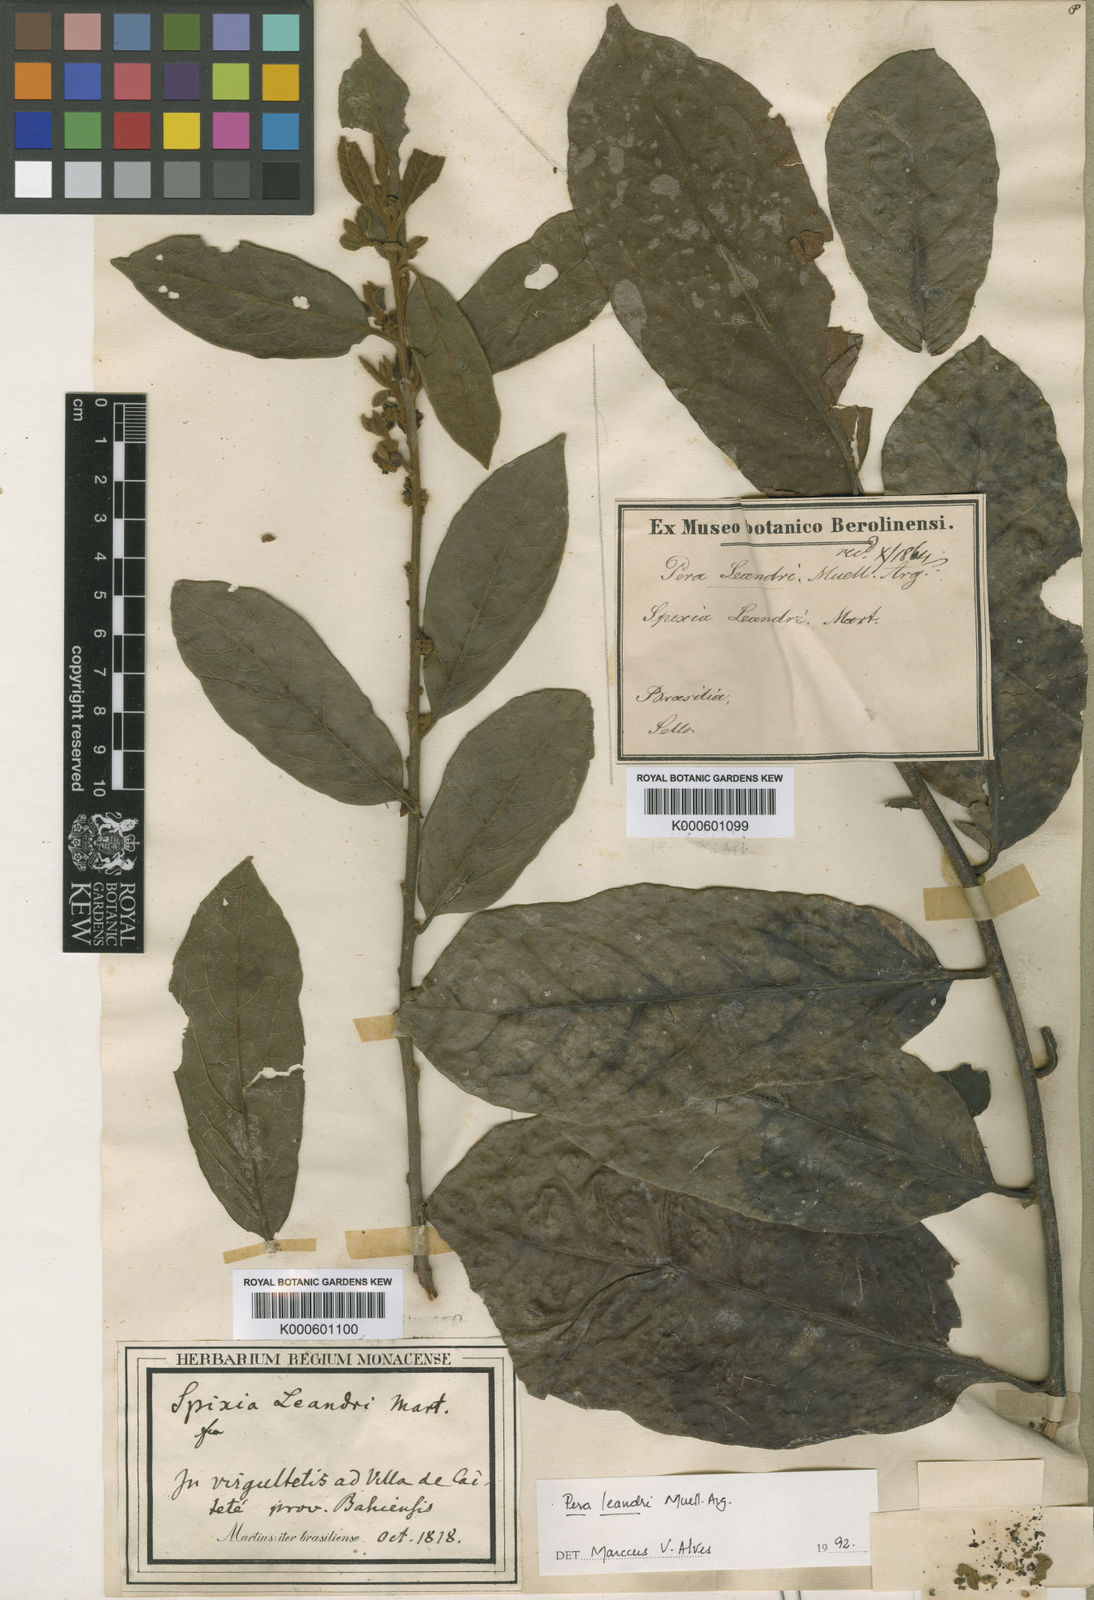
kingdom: Plantae
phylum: Tracheophyta
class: Magnoliopsida
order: Malpighiales
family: Peraceae
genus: Pera
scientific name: Pera
